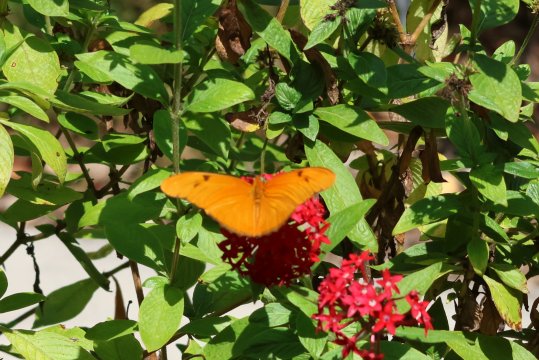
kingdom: Animalia
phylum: Arthropoda
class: Insecta
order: Lepidoptera
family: Nymphalidae
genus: Dryas
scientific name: Dryas iulia
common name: Julia
